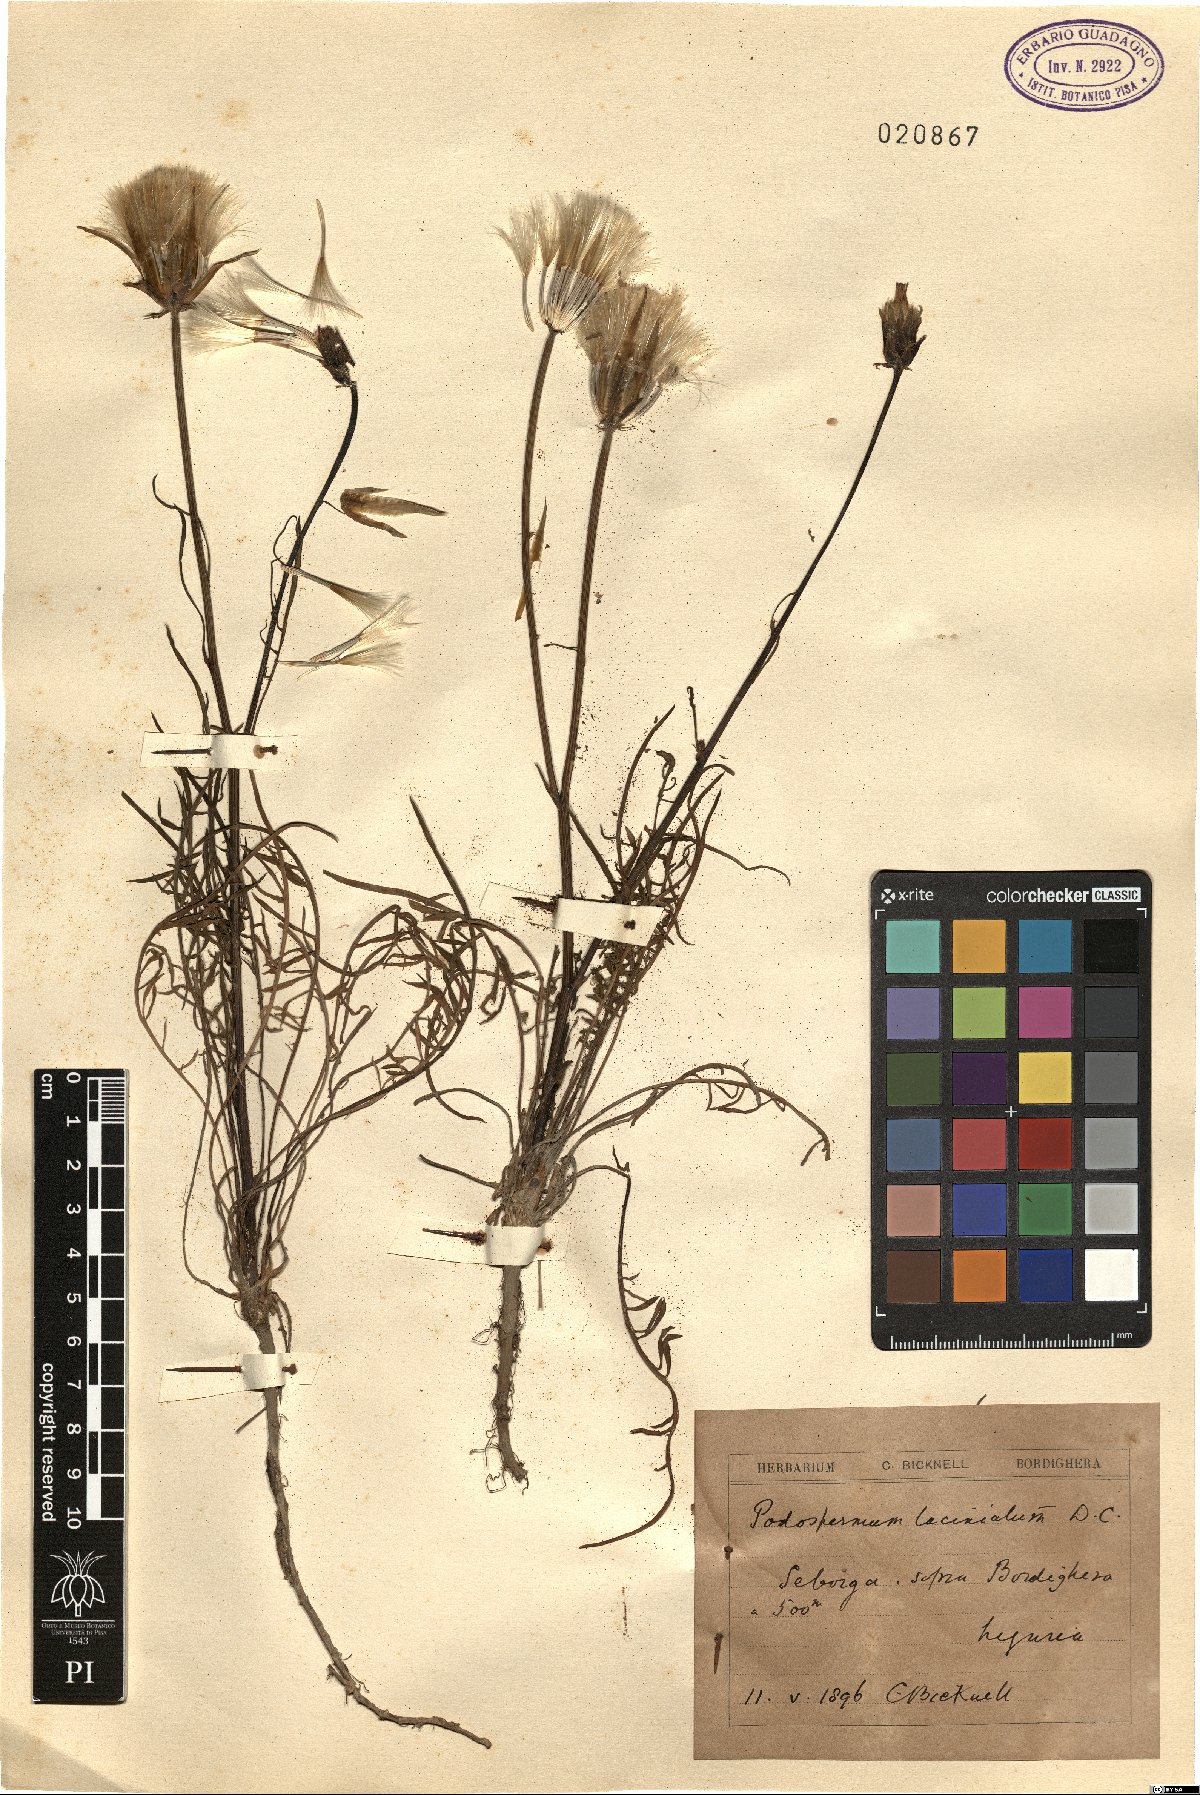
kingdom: Plantae
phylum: Tracheophyta
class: Magnoliopsida
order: Asterales
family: Asteraceae
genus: Scorzonera
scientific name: Scorzonera laciniata
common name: Cutleaf vipergrass
